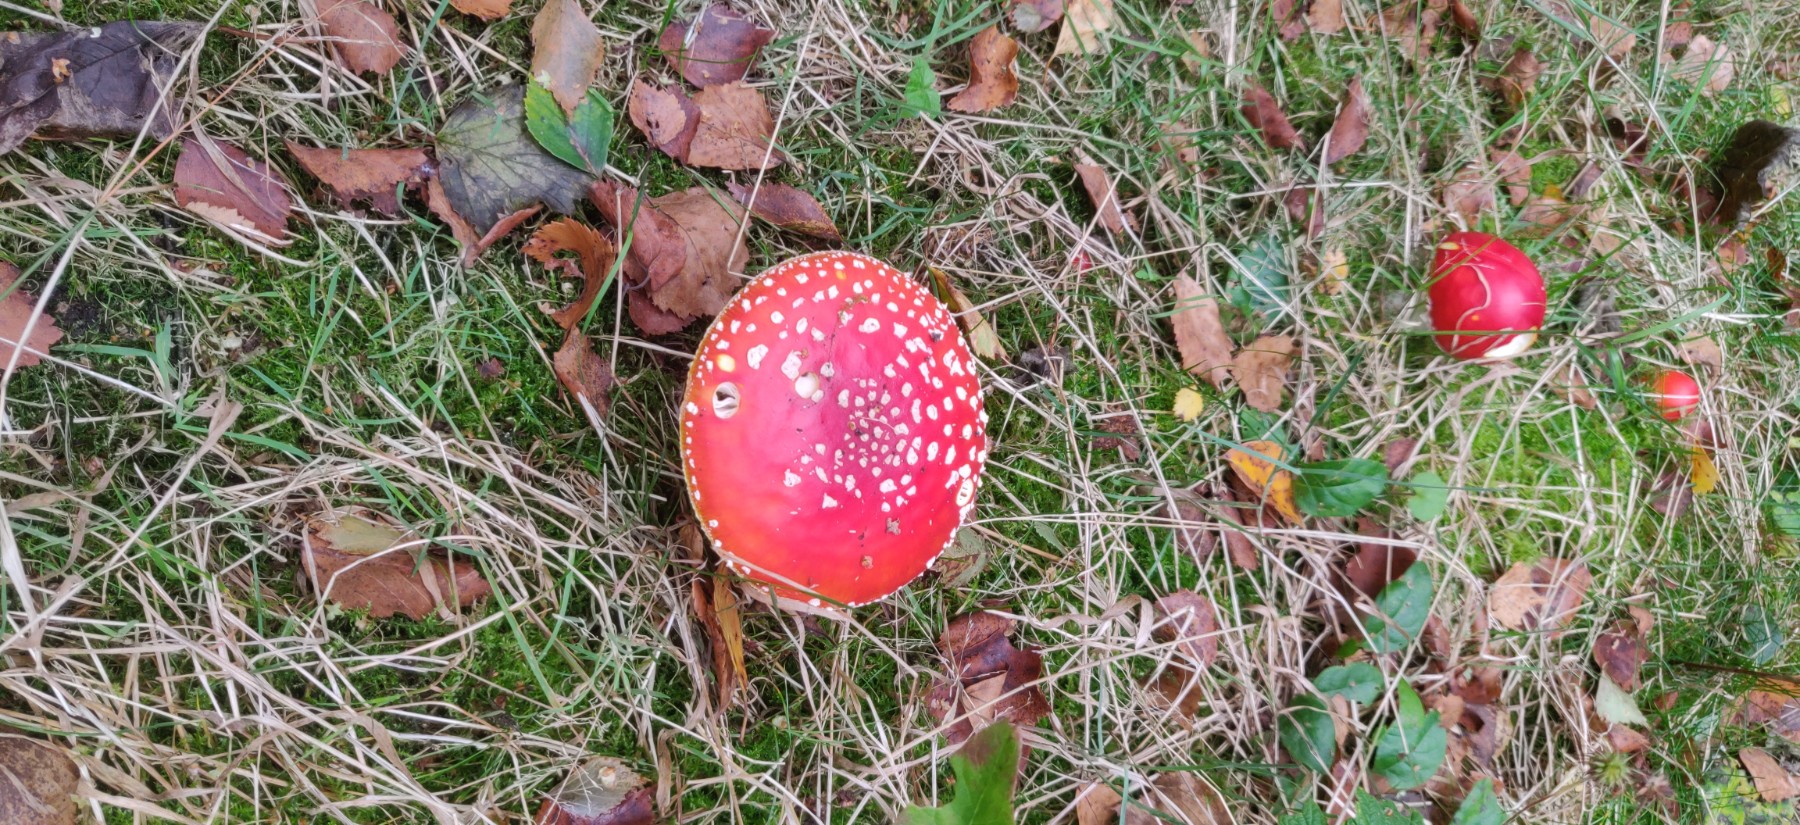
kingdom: Fungi
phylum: Basidiomycota
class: Agaricomycetes
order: Agaricales
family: Amanitaceae
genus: Amanita
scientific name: Amanita muscaria
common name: rød fluesvamp
